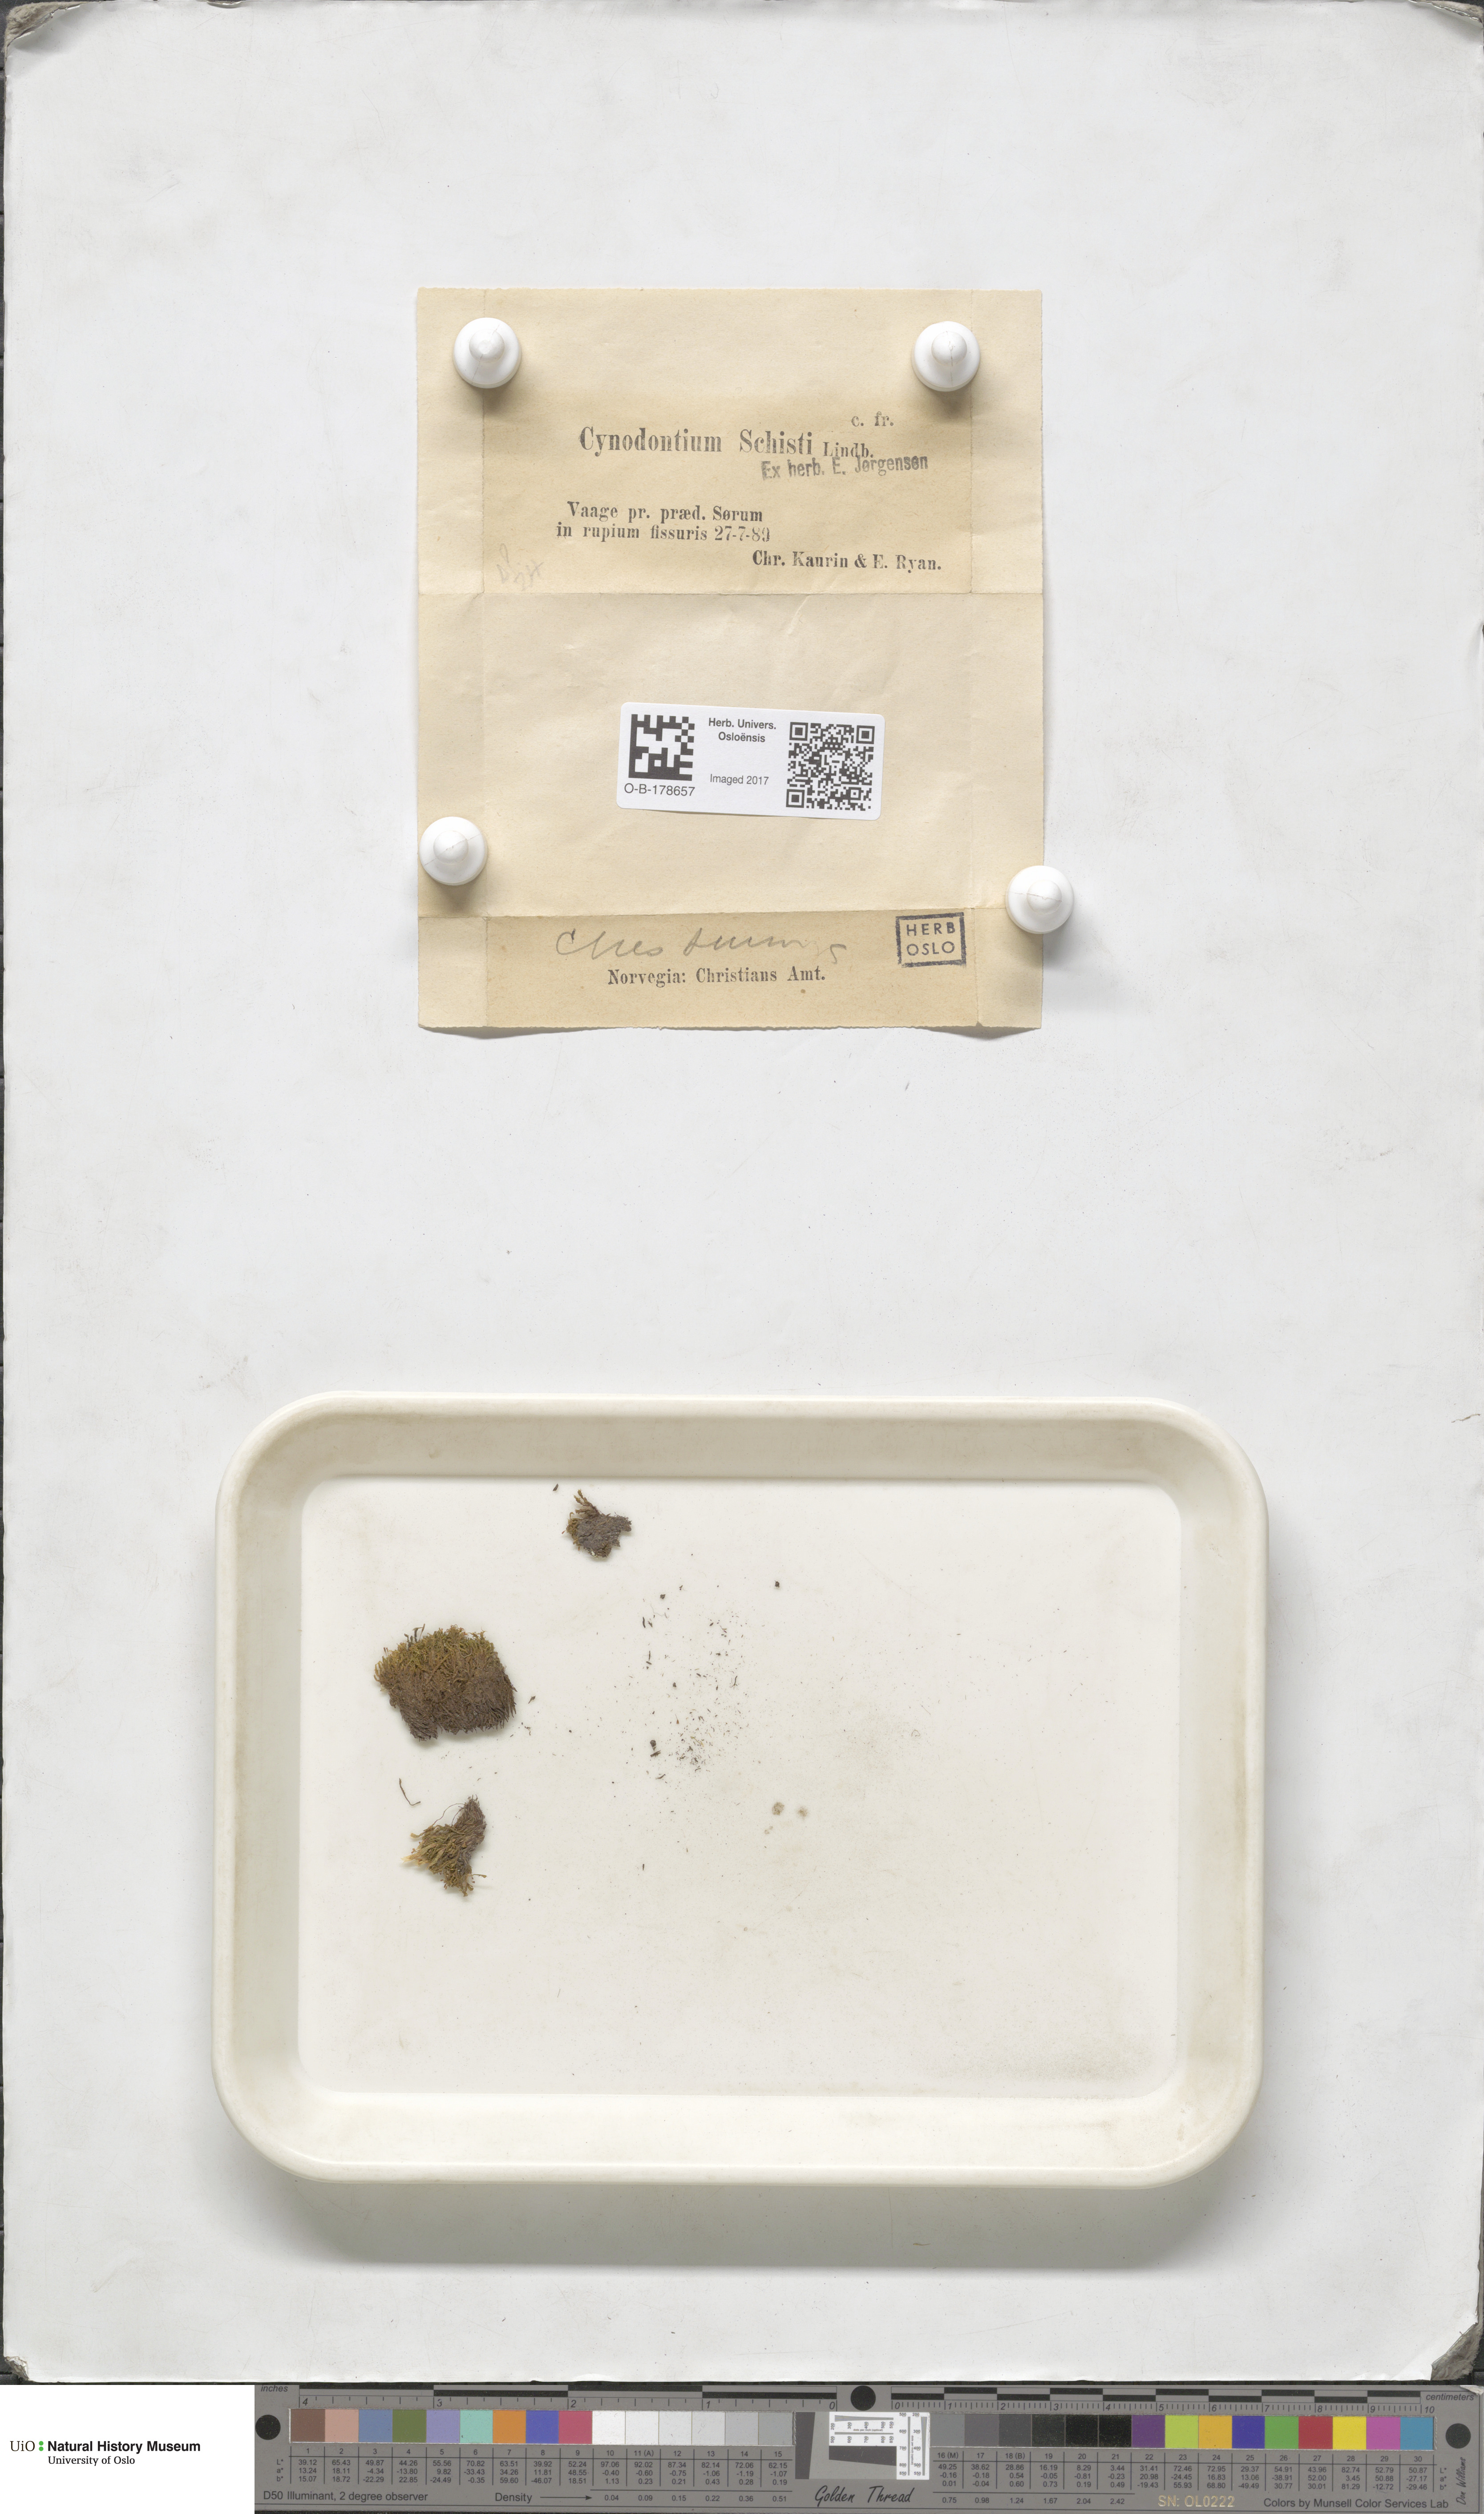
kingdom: Plantae
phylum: Bryophyta
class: Bryopsida
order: Dicranales
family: Rhabdoweisiaceae
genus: Cnestrum
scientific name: Cnestrum schisti
